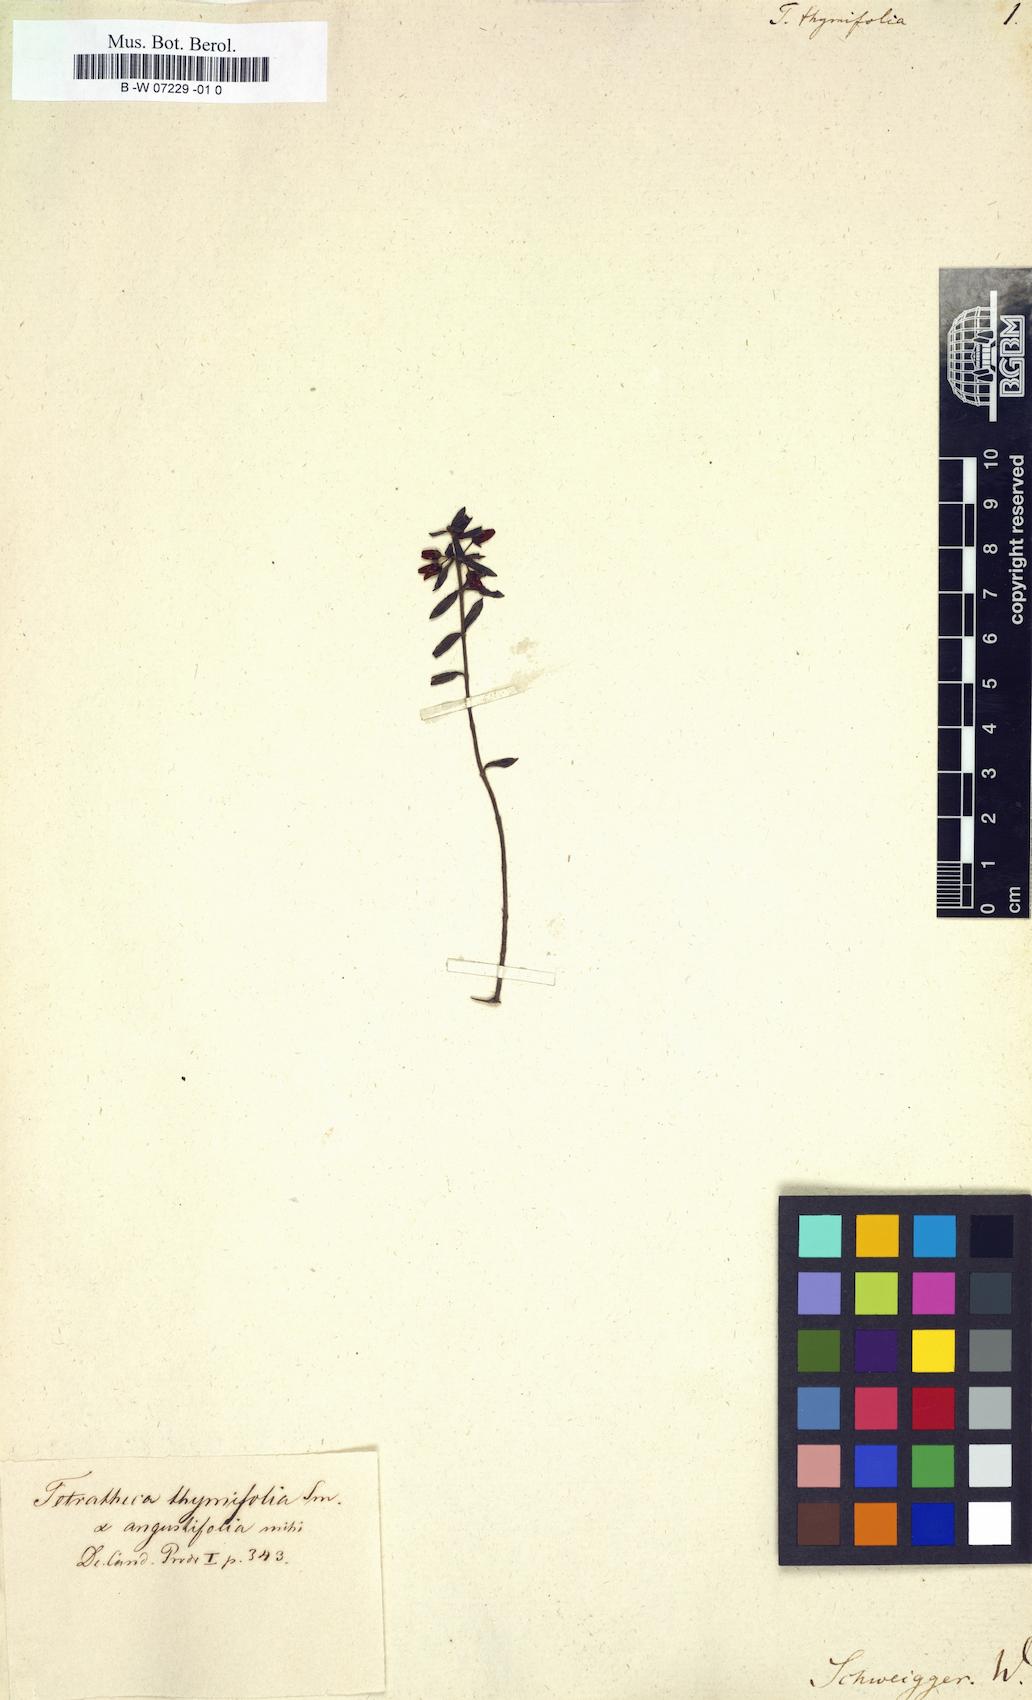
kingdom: Plantae
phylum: Tracheophyta
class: Magnoliopsida
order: Oxalidales
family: Elaeocarpaceae
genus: Tetratheca
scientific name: Tetratheca thymifolia
